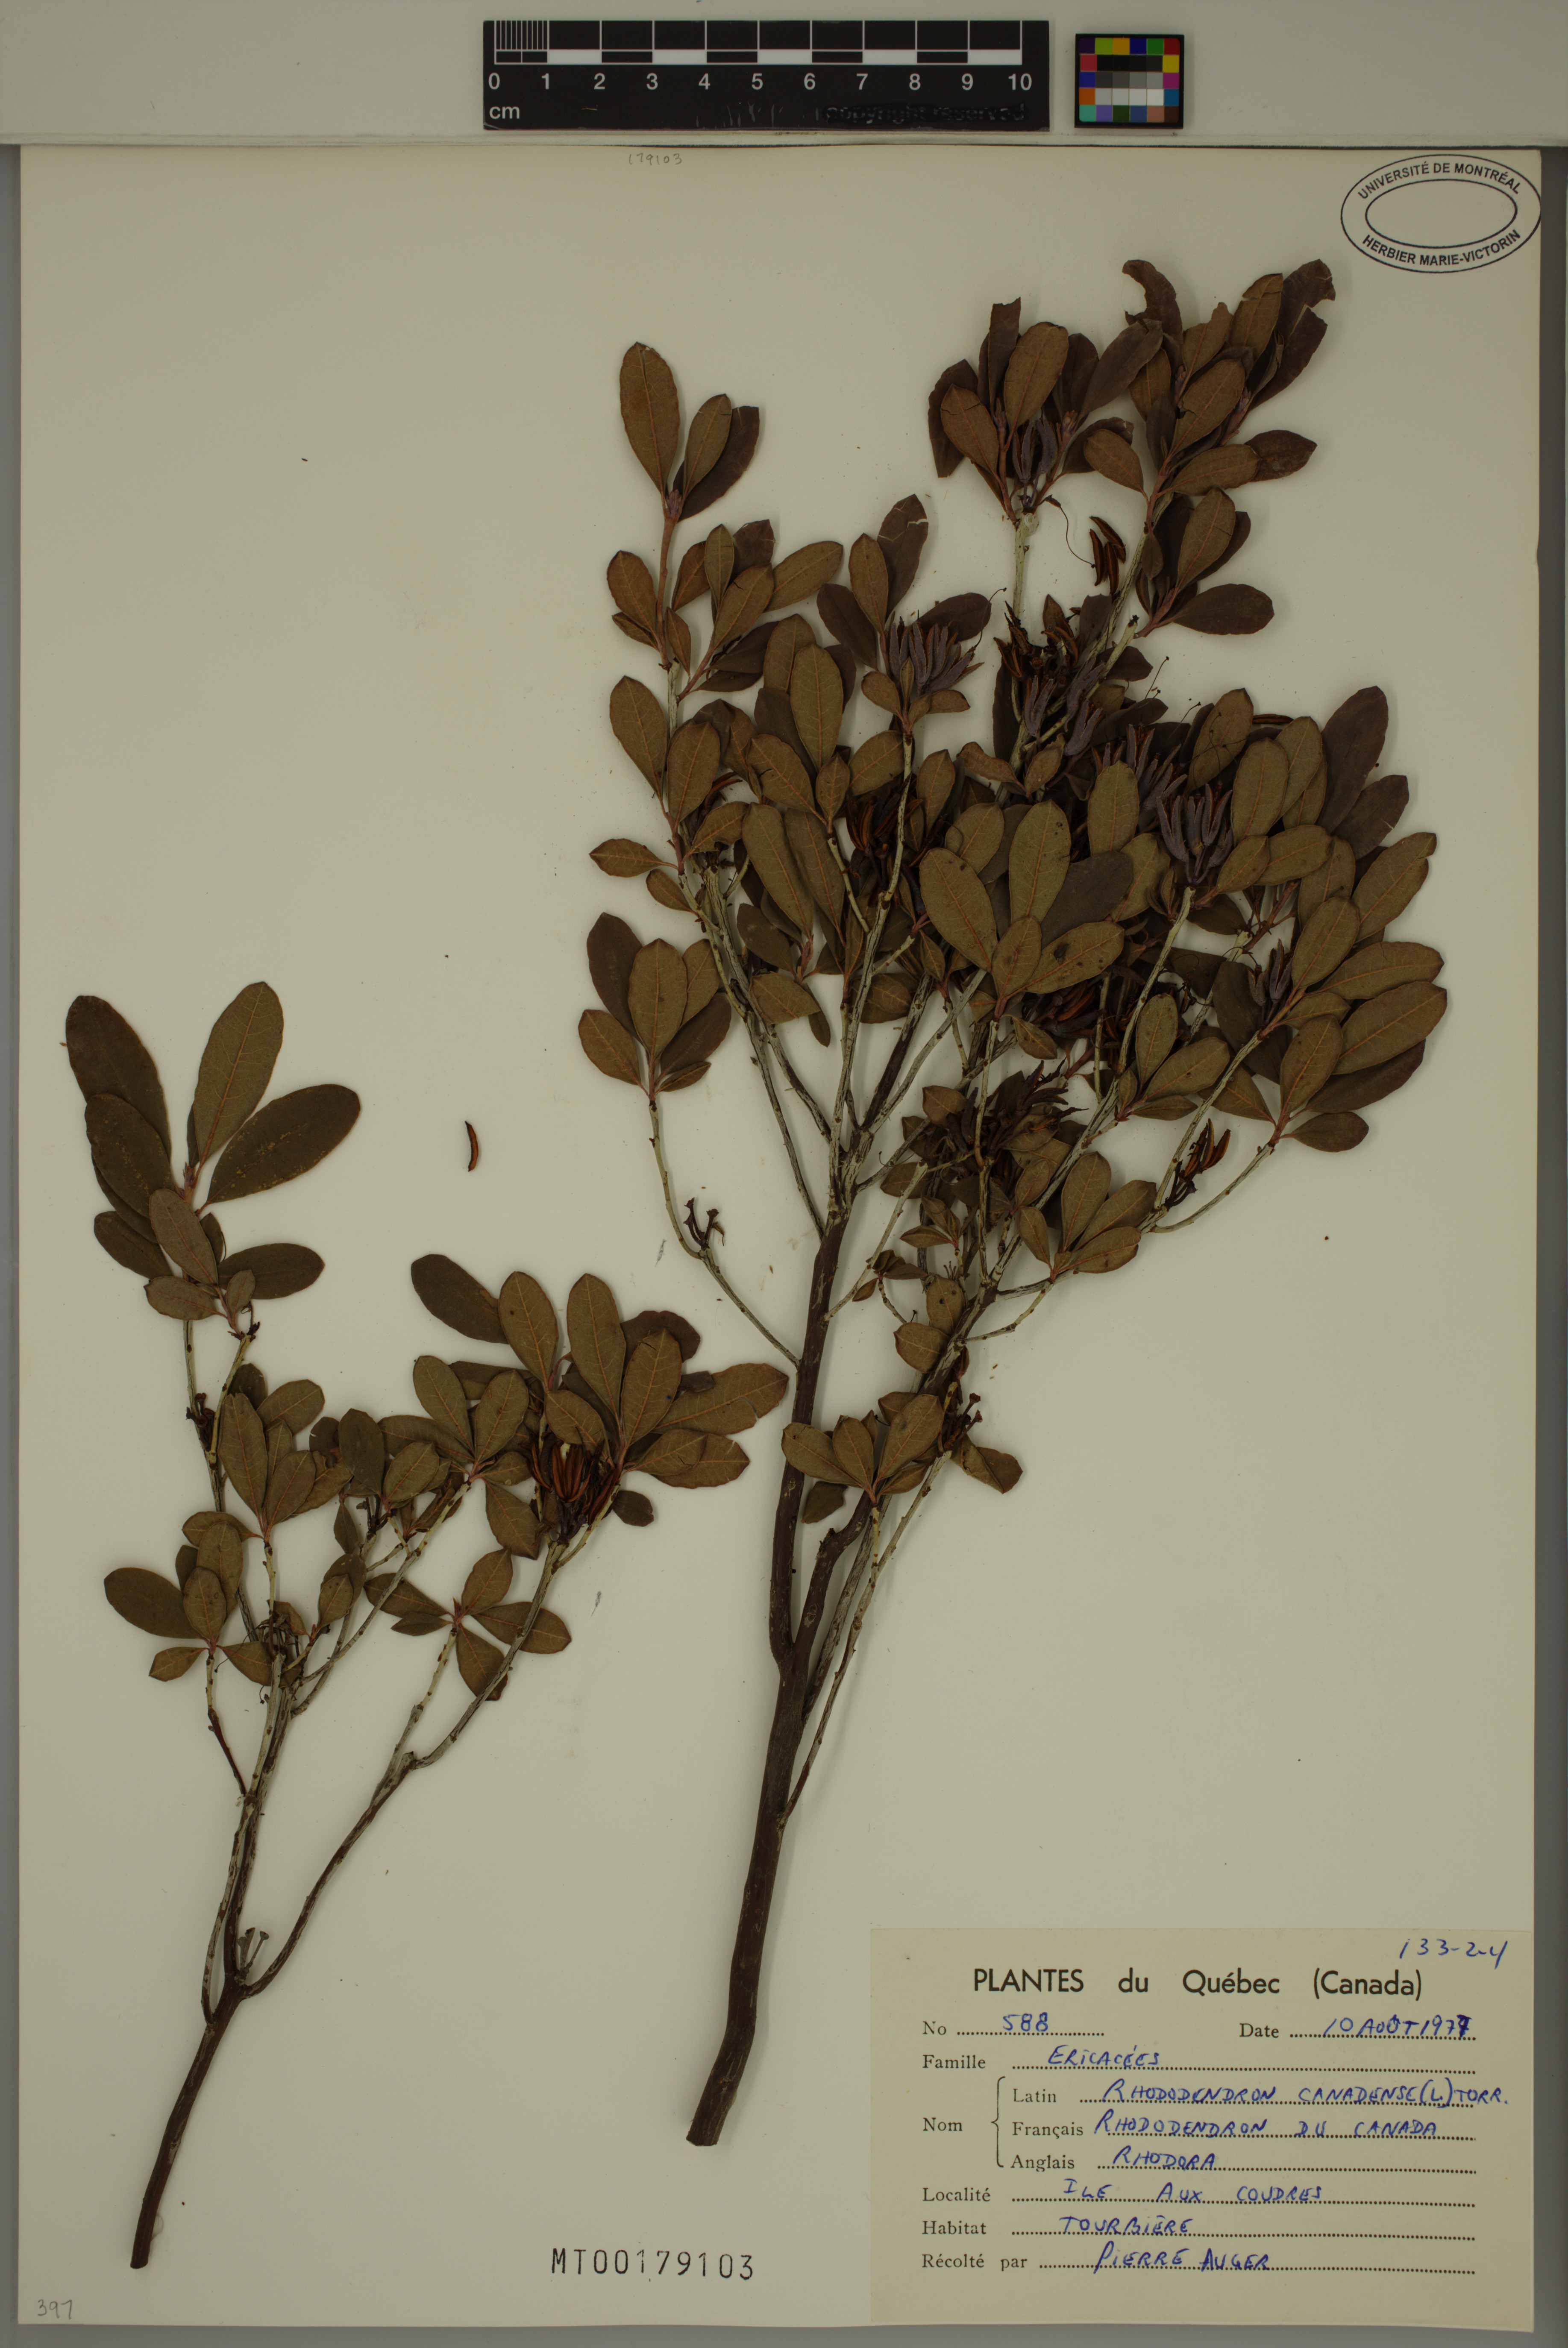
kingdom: Plantae
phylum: Tracheophyta
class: Magnoliopsida
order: Ericales
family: Ericaceae
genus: Rhododendron
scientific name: Rhododendron canadense
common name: Rhodora
